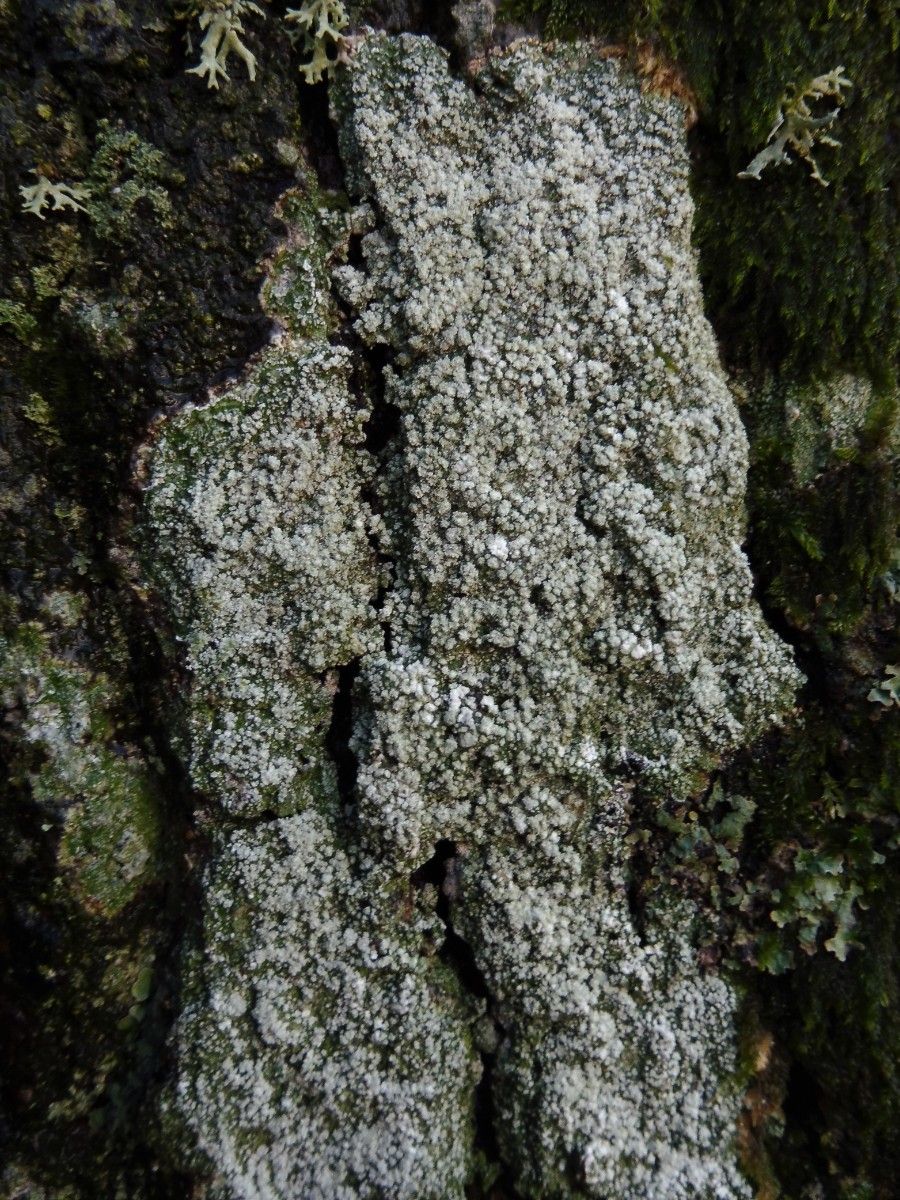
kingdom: Fungi
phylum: Ascomycota
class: Lecanoromycetes
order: Pertusariales
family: Pertusariaceae
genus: Lepra
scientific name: Lepra amara
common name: bitter prikvortelav
